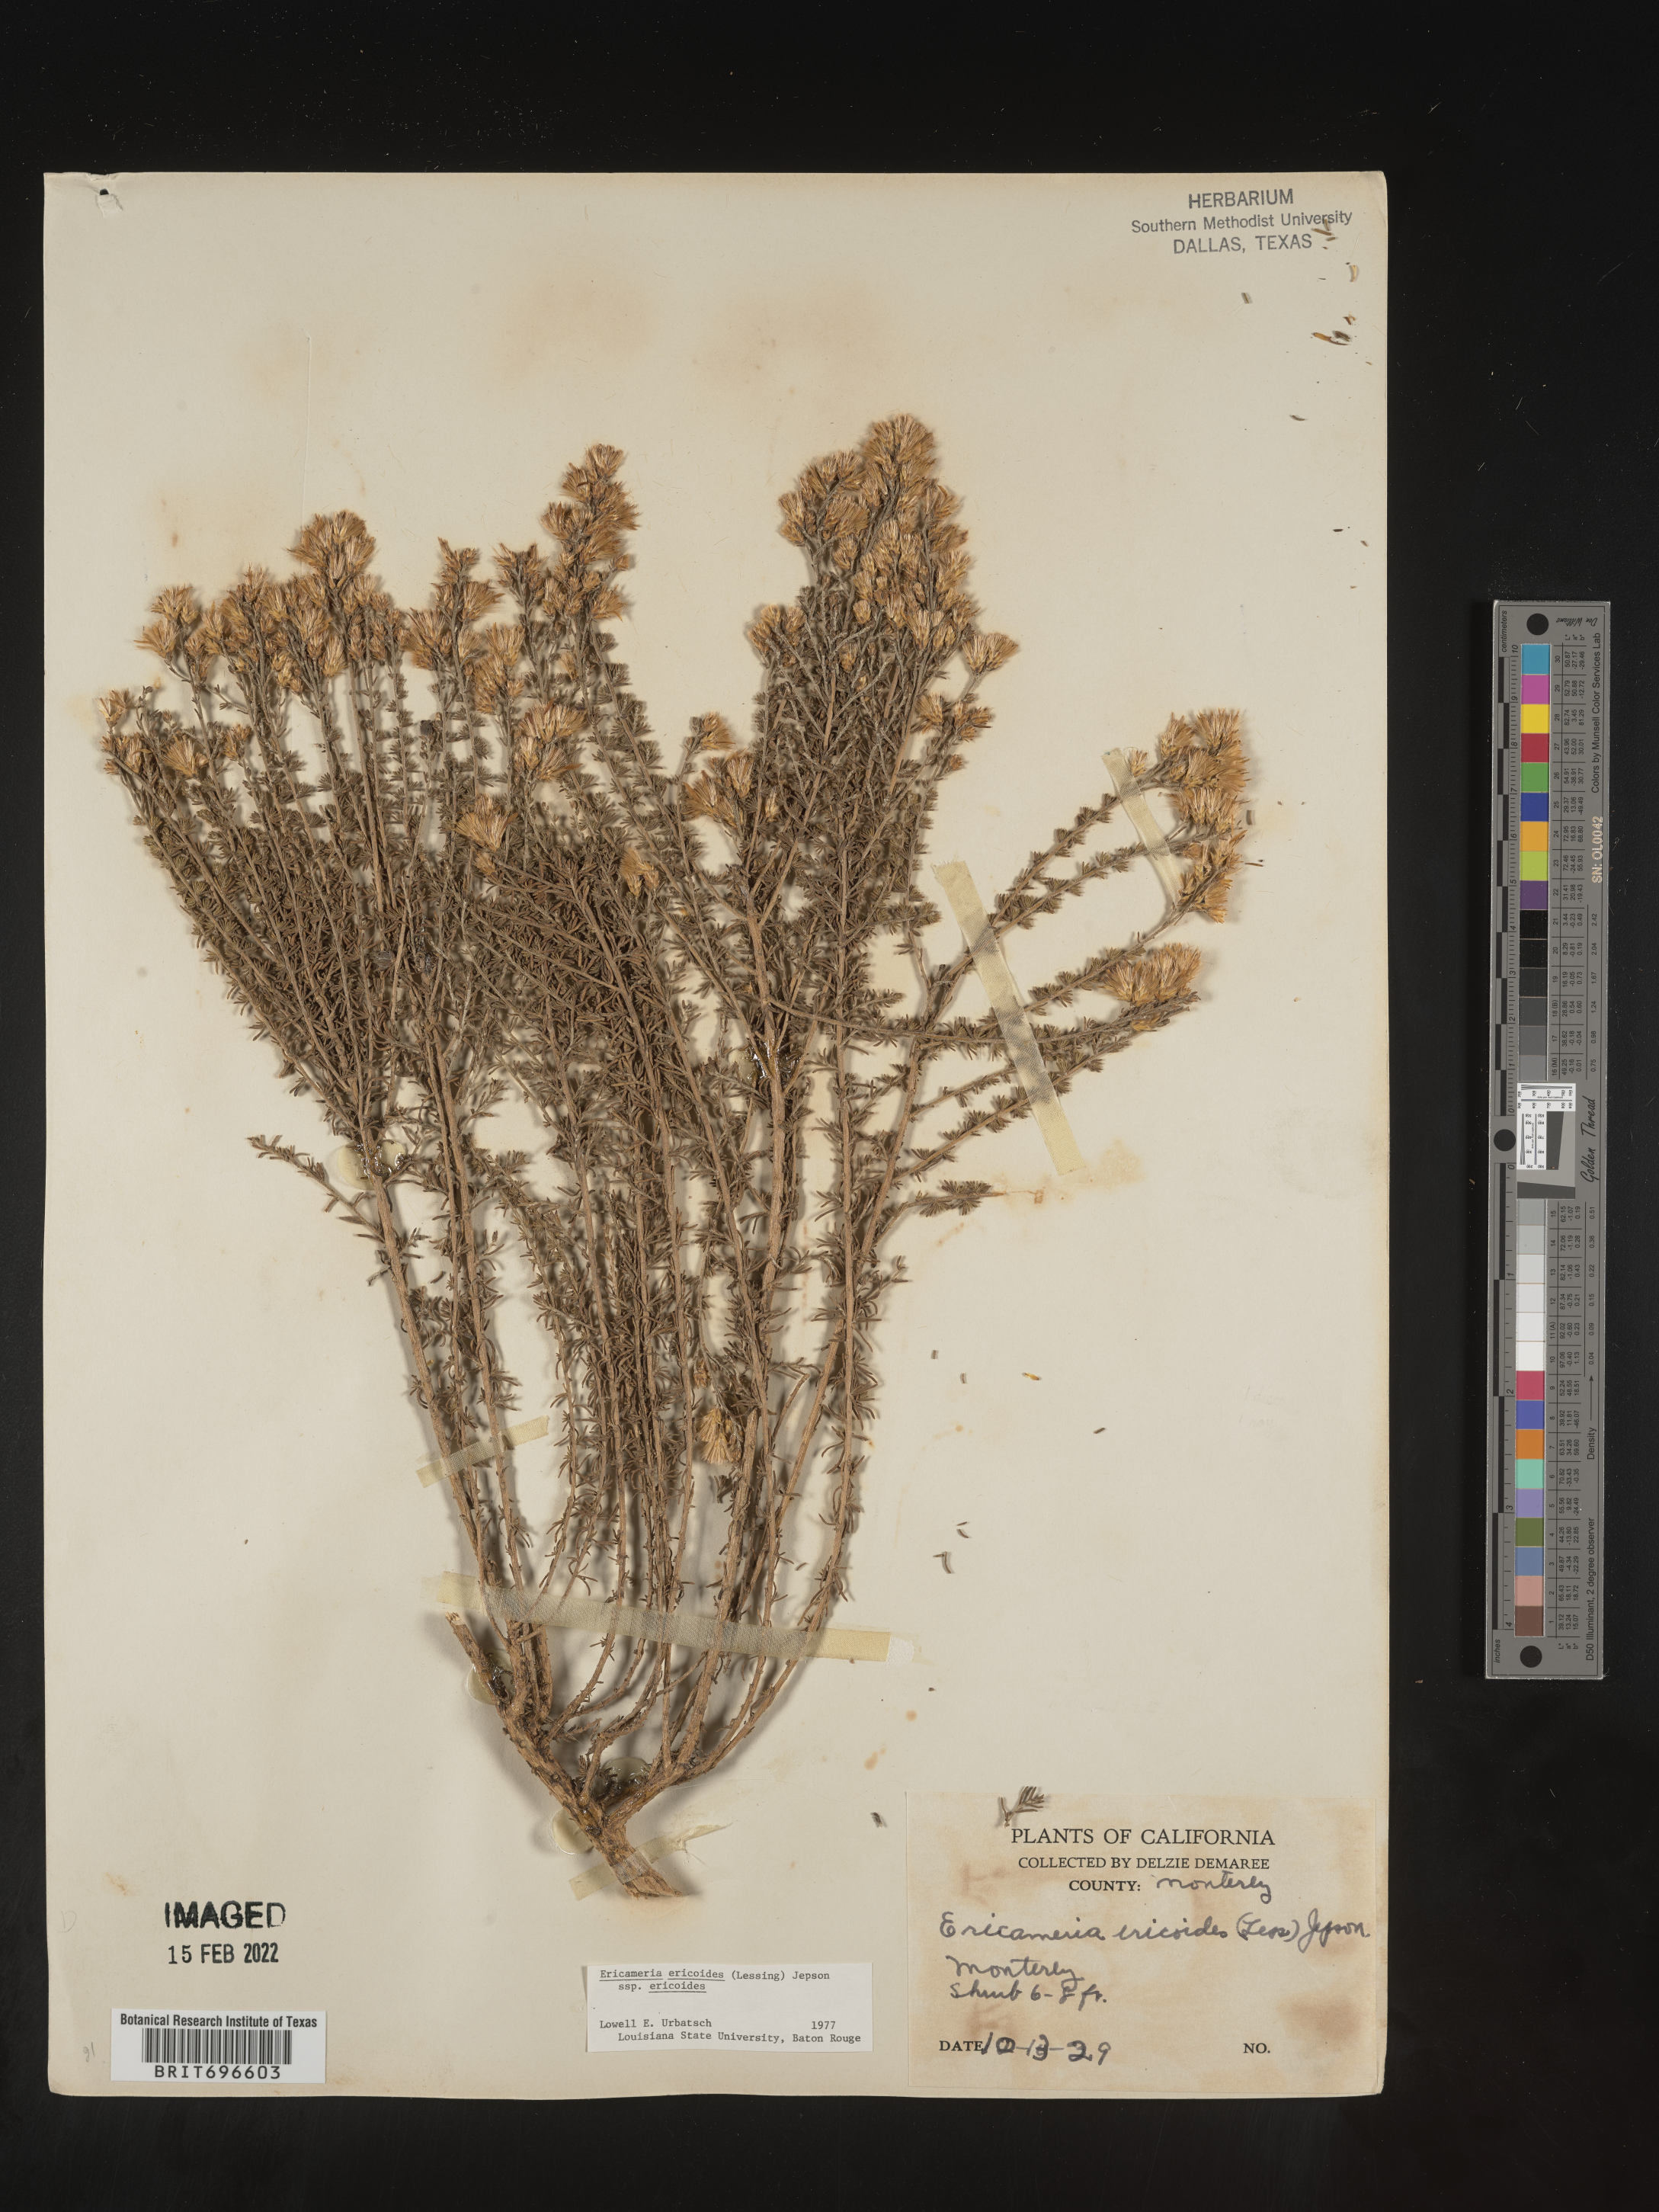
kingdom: Plantae
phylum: Tracheophyta
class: Magnoliopsida
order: Asterales
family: Asteraceae
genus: Ericameria
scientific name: Ericameria ericoides
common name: California goldenbush
